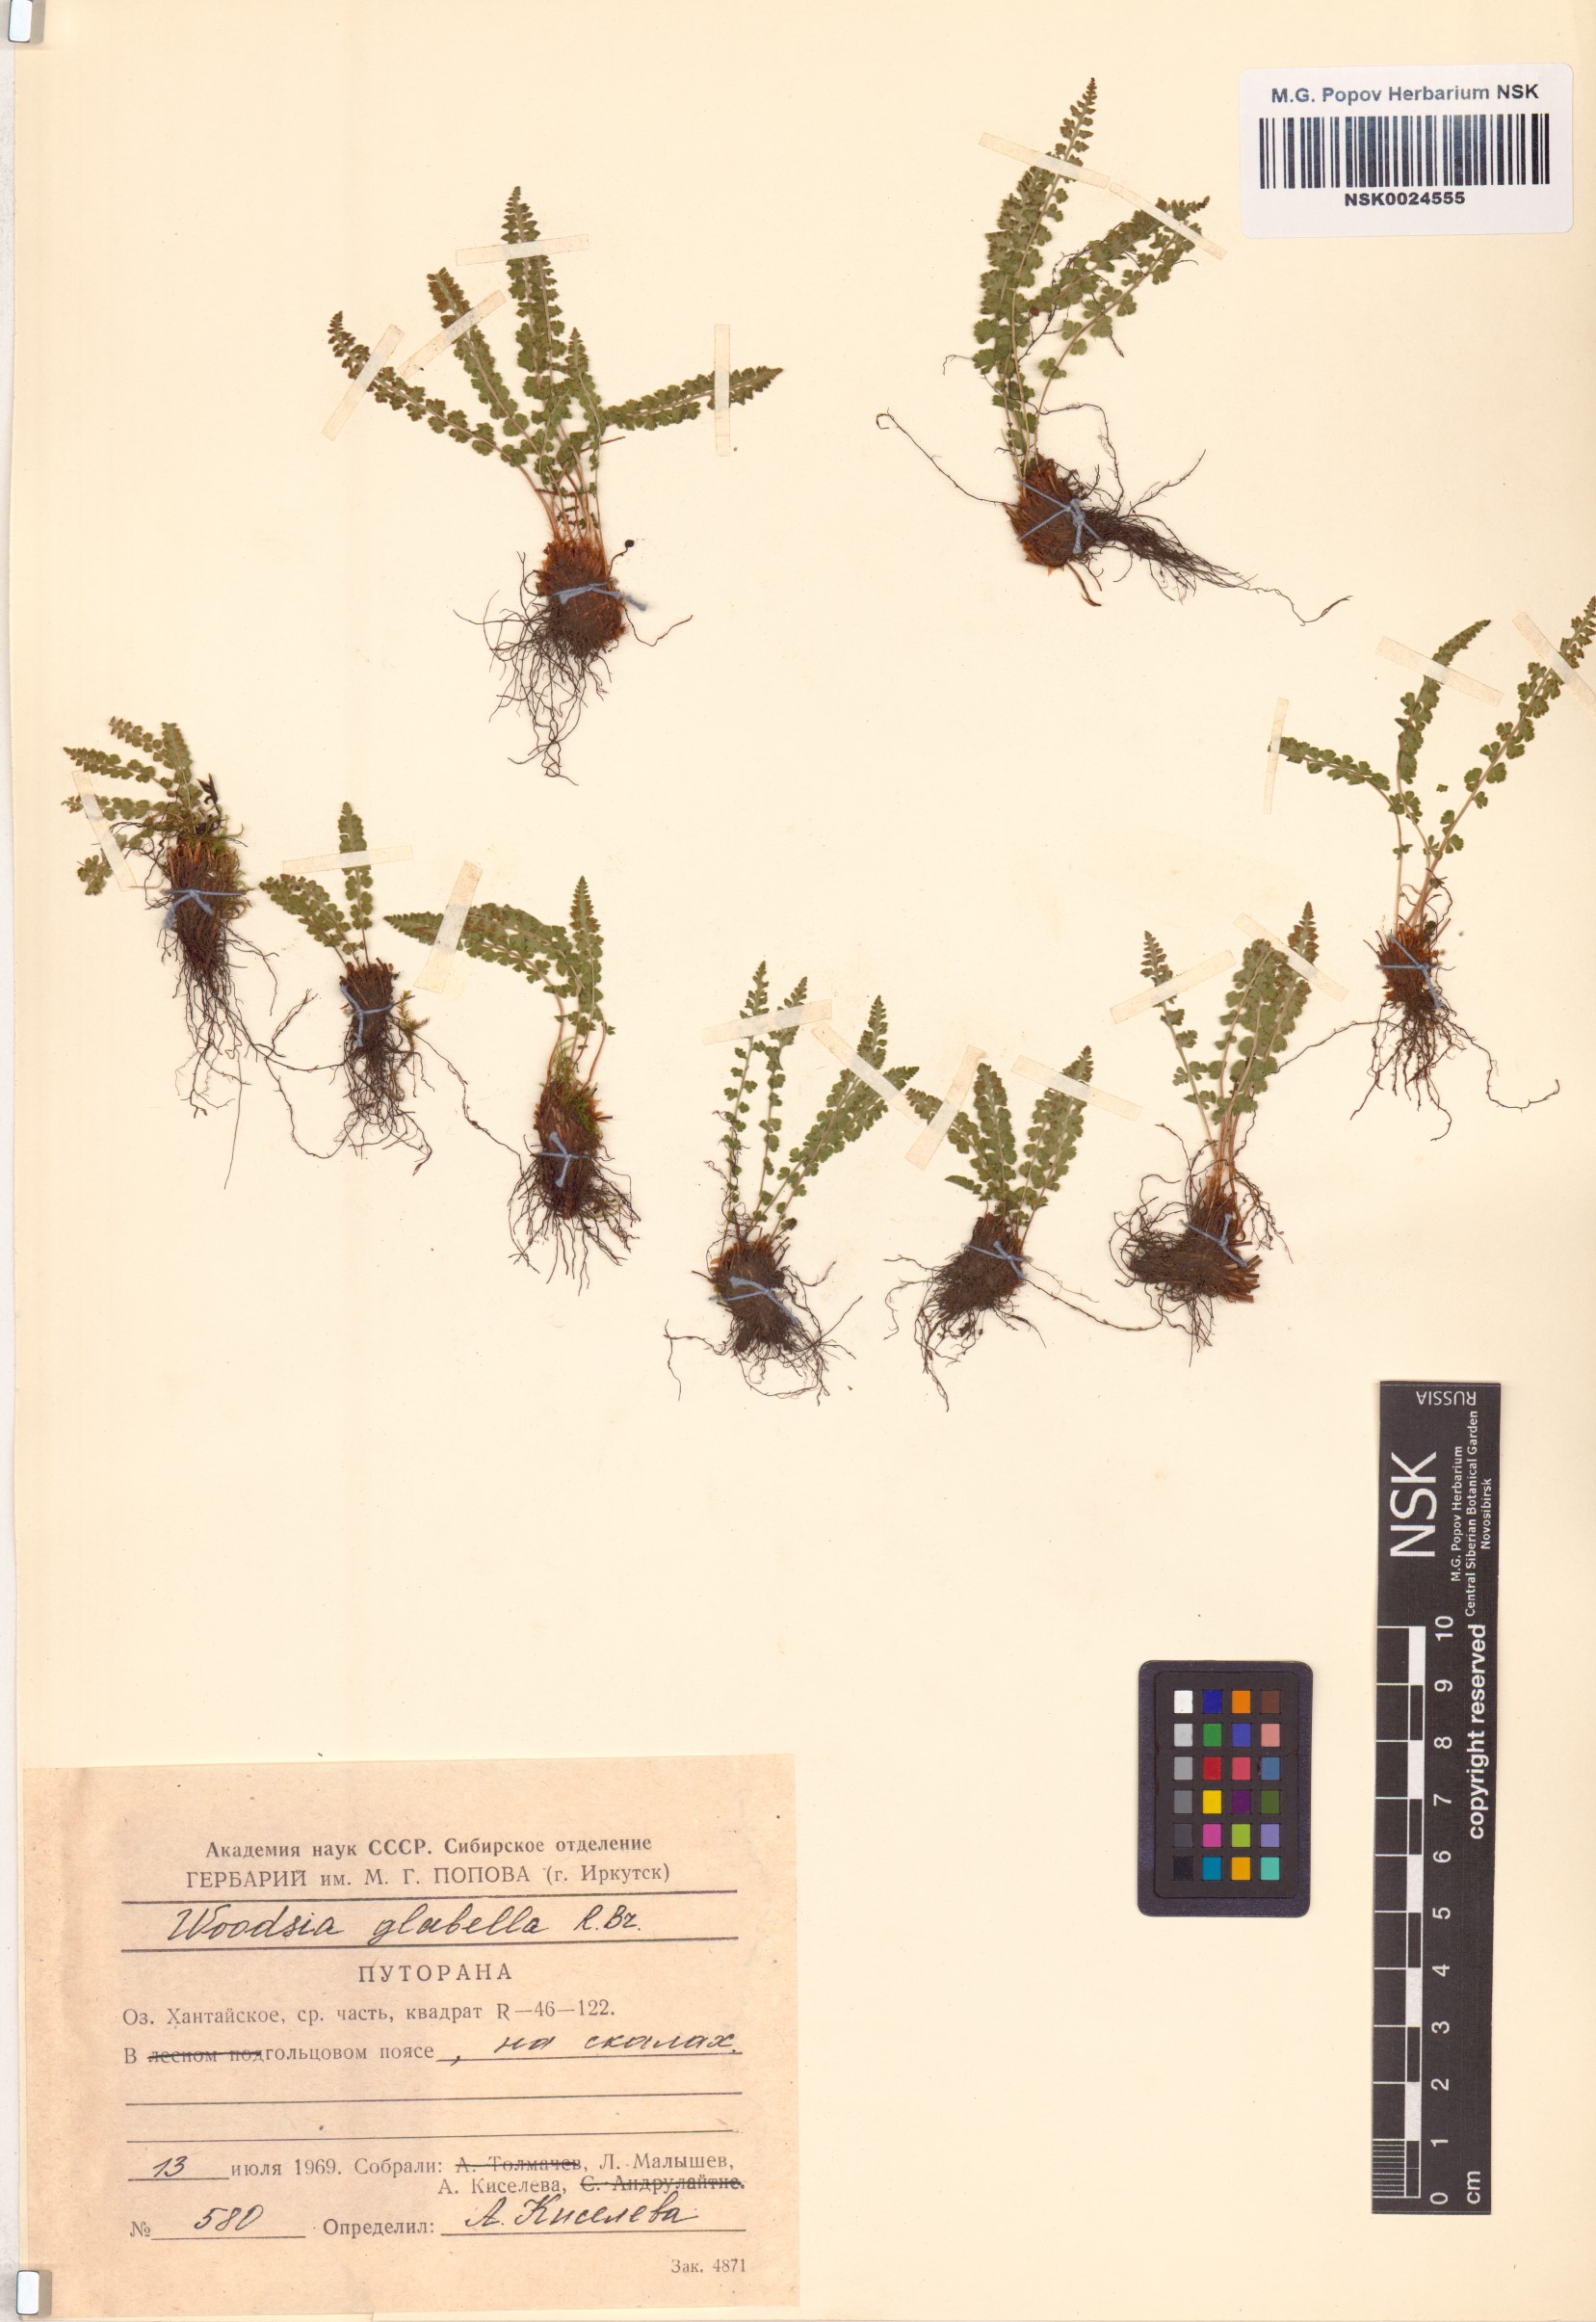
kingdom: Plantae
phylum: Tracheophyta
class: Polypodiopsida
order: Polypodiales
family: Woodsiaceae
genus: Woodsia
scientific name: Woodsia glabella
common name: Smooth woodsia
